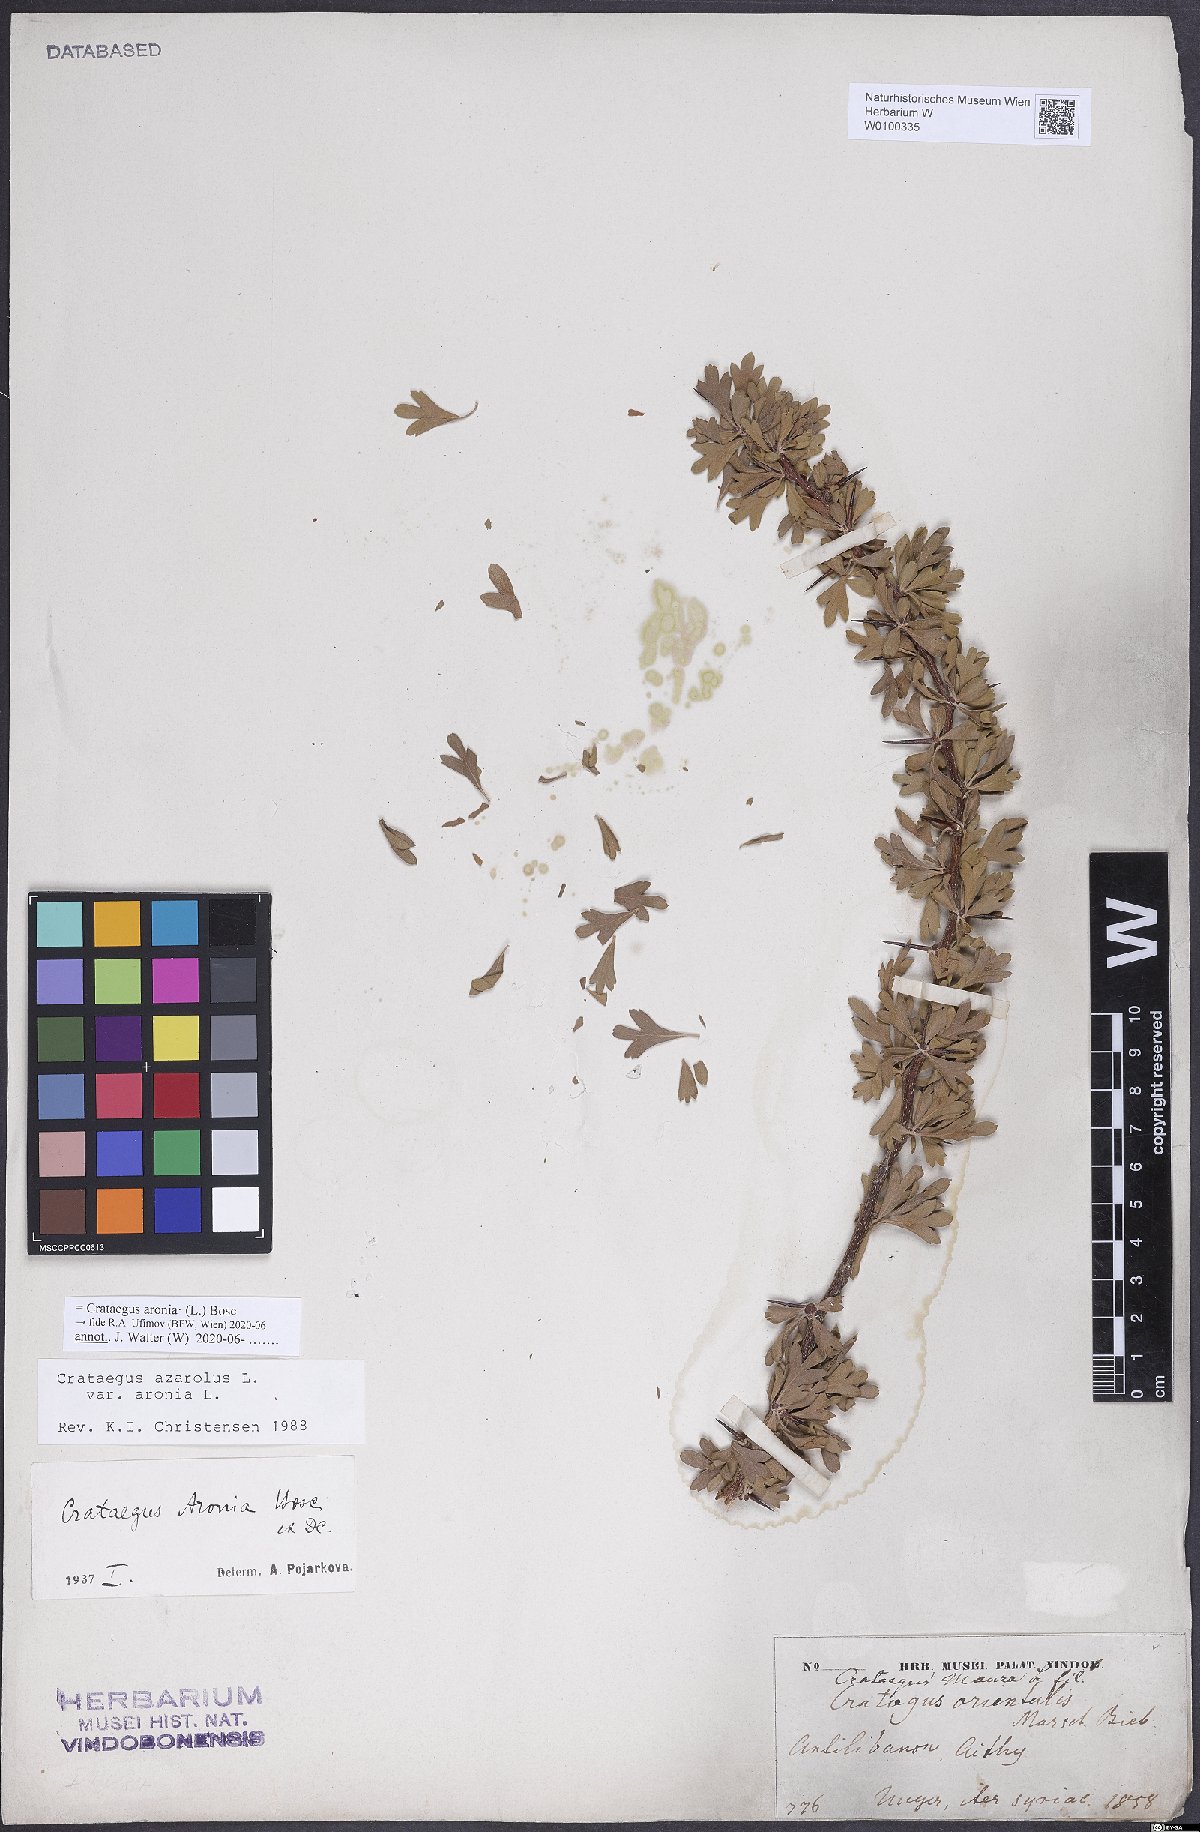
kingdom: Plantae
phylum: Tracheophyta
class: Magnoliopsida
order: Rosales
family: Rosaceae
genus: Crataegus
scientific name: Crataegus azarolus
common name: Azarole
